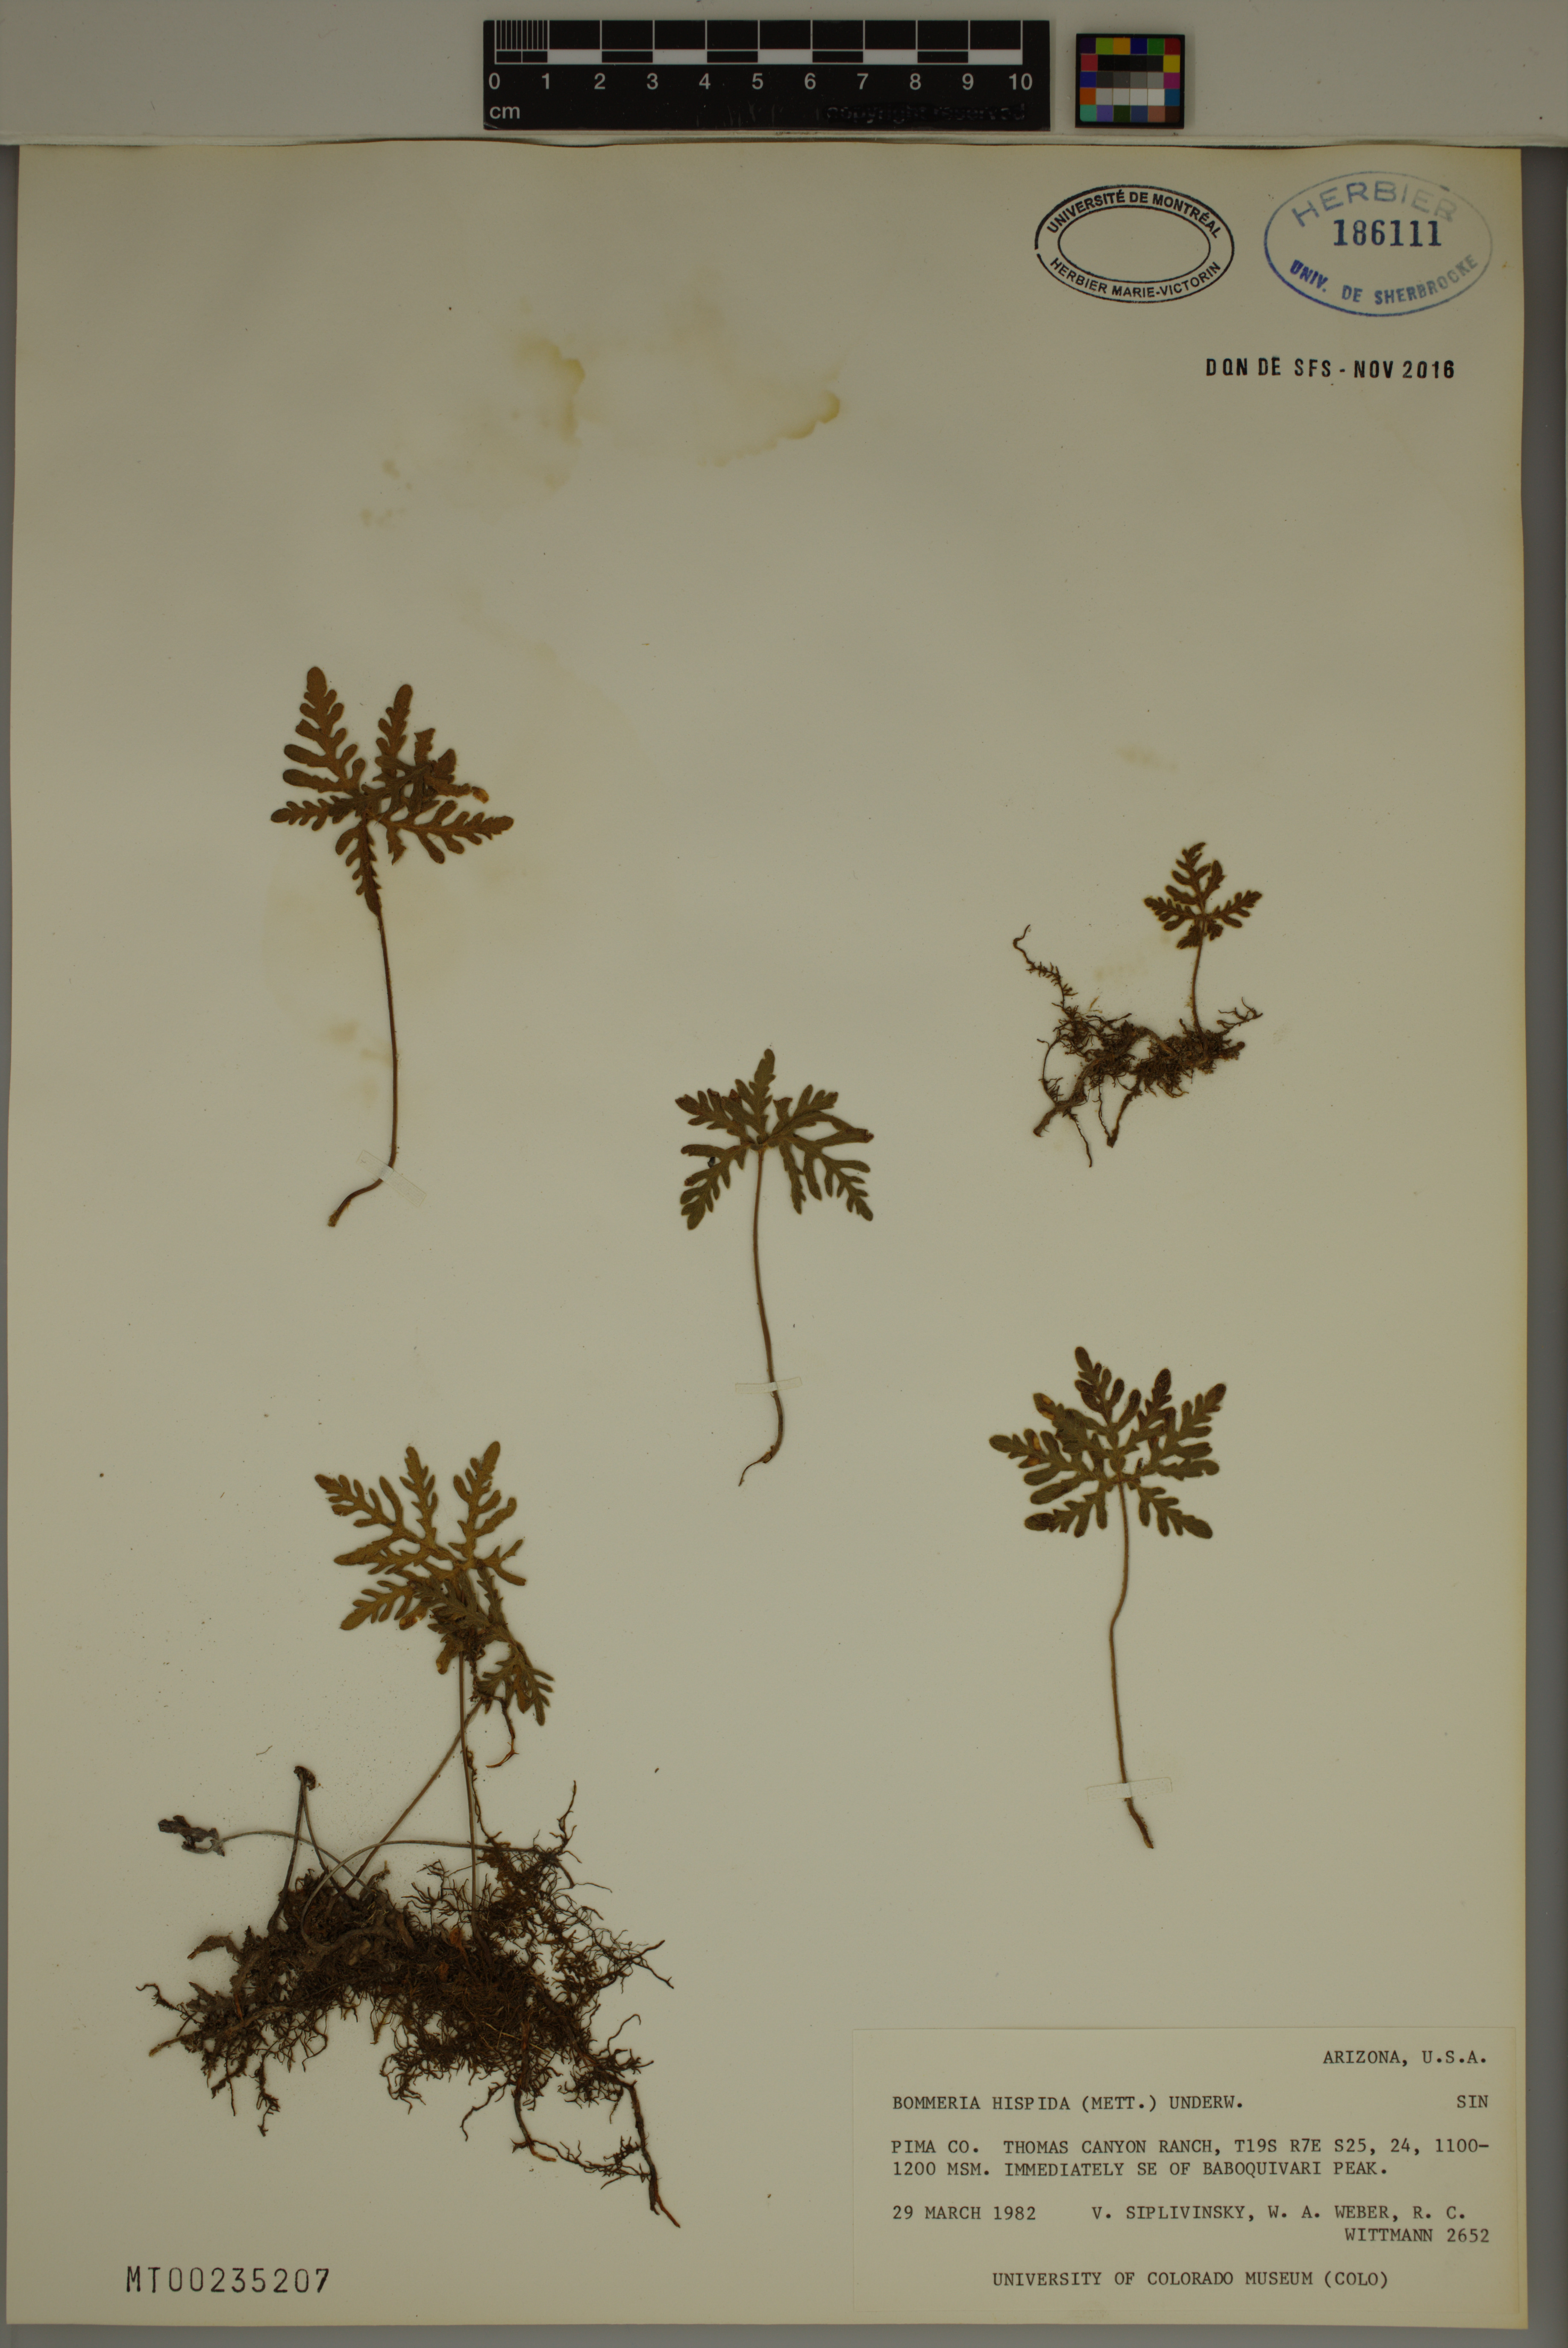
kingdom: Plantae
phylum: Tracheophyta
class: Polypodiopsida
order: Polypodiales
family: Pteridaceae
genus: Bommeria
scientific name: Bommeria hispida
